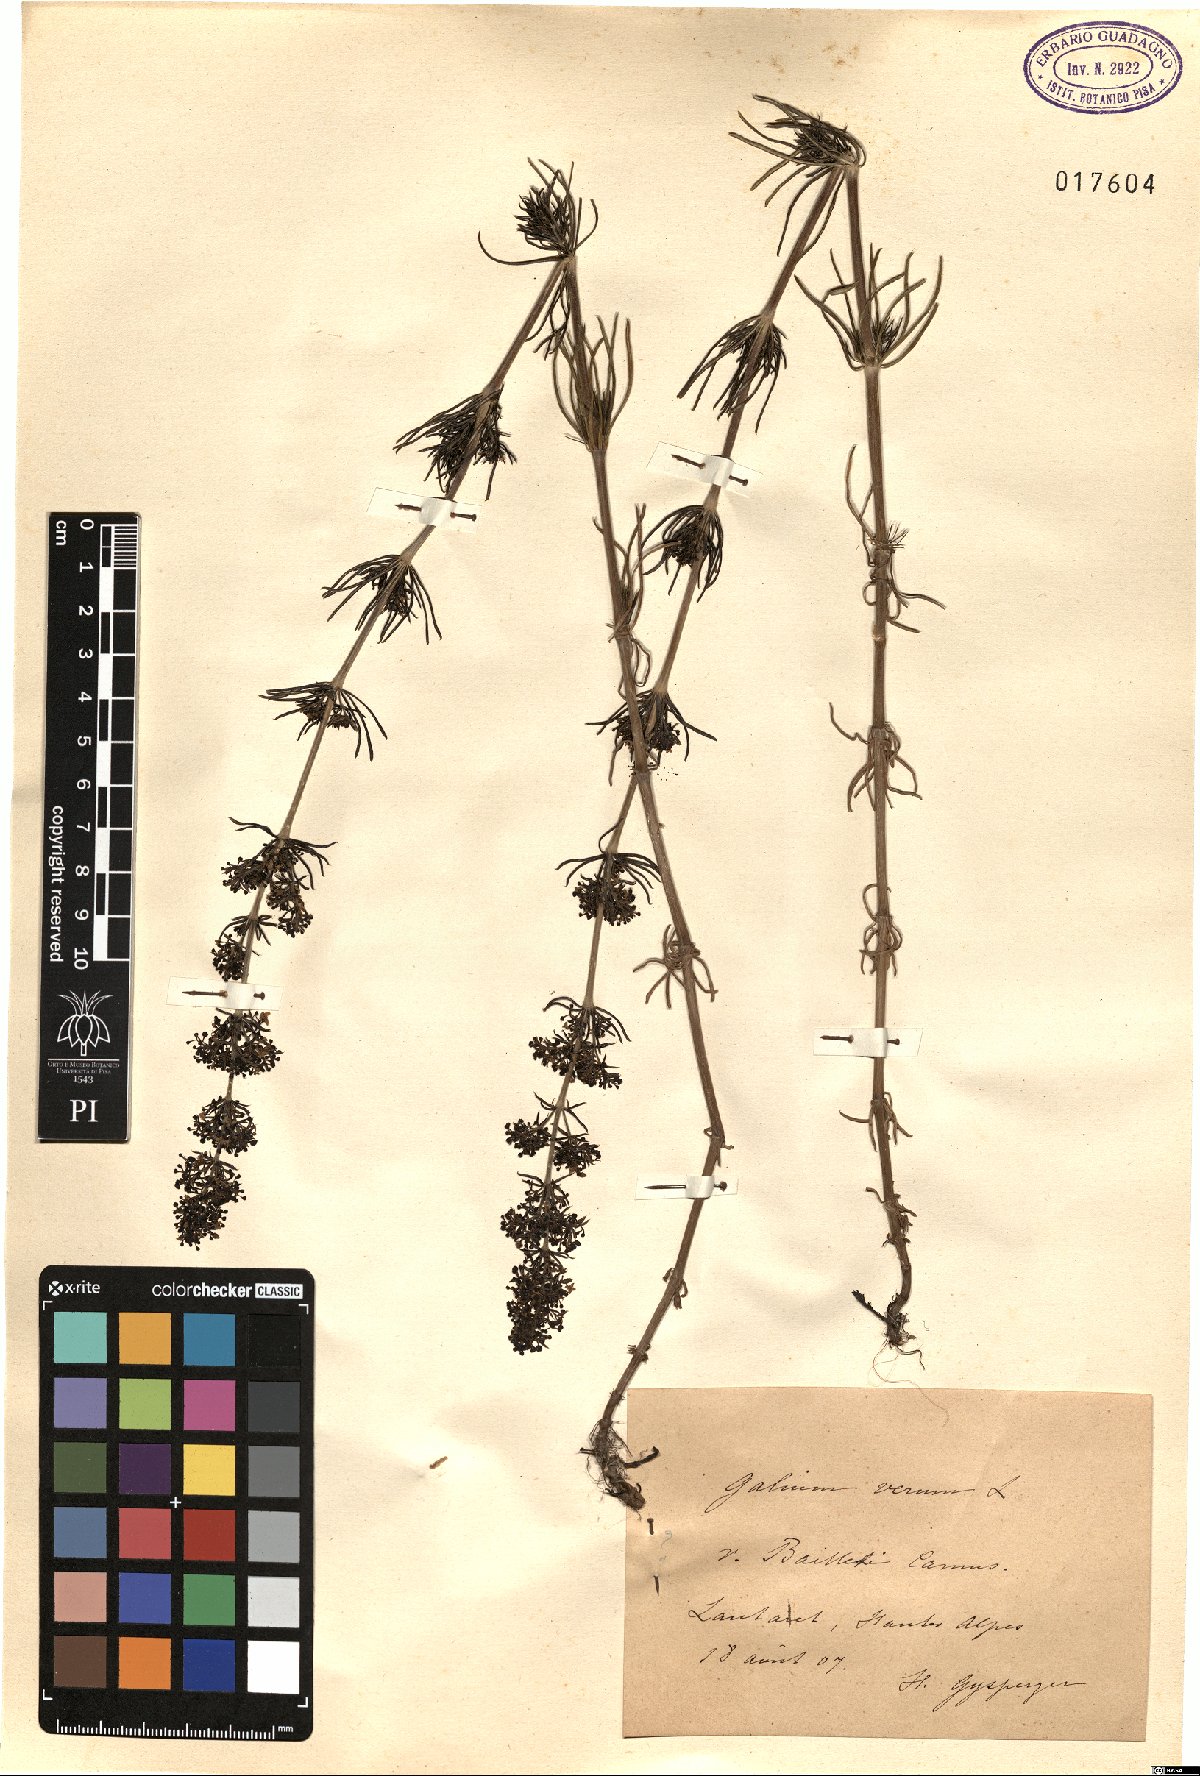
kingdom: Plantae
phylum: Tracheophyta
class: Magnoliopsida
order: Gentianales
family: Rubiaceae
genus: Galium
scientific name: Galium verum
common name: Lady's bedstraw
